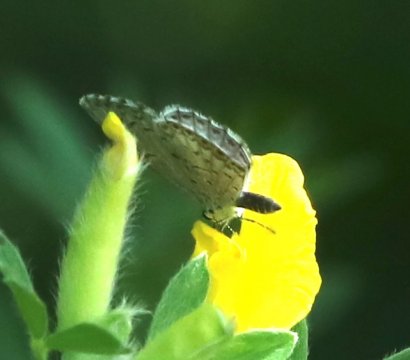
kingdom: Animalia
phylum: Arthropoda
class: Insecta
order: Lepidoptera
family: Lycaenidae
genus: Cyaniris
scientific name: Cyaniris neglecta
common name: Summer Azure
